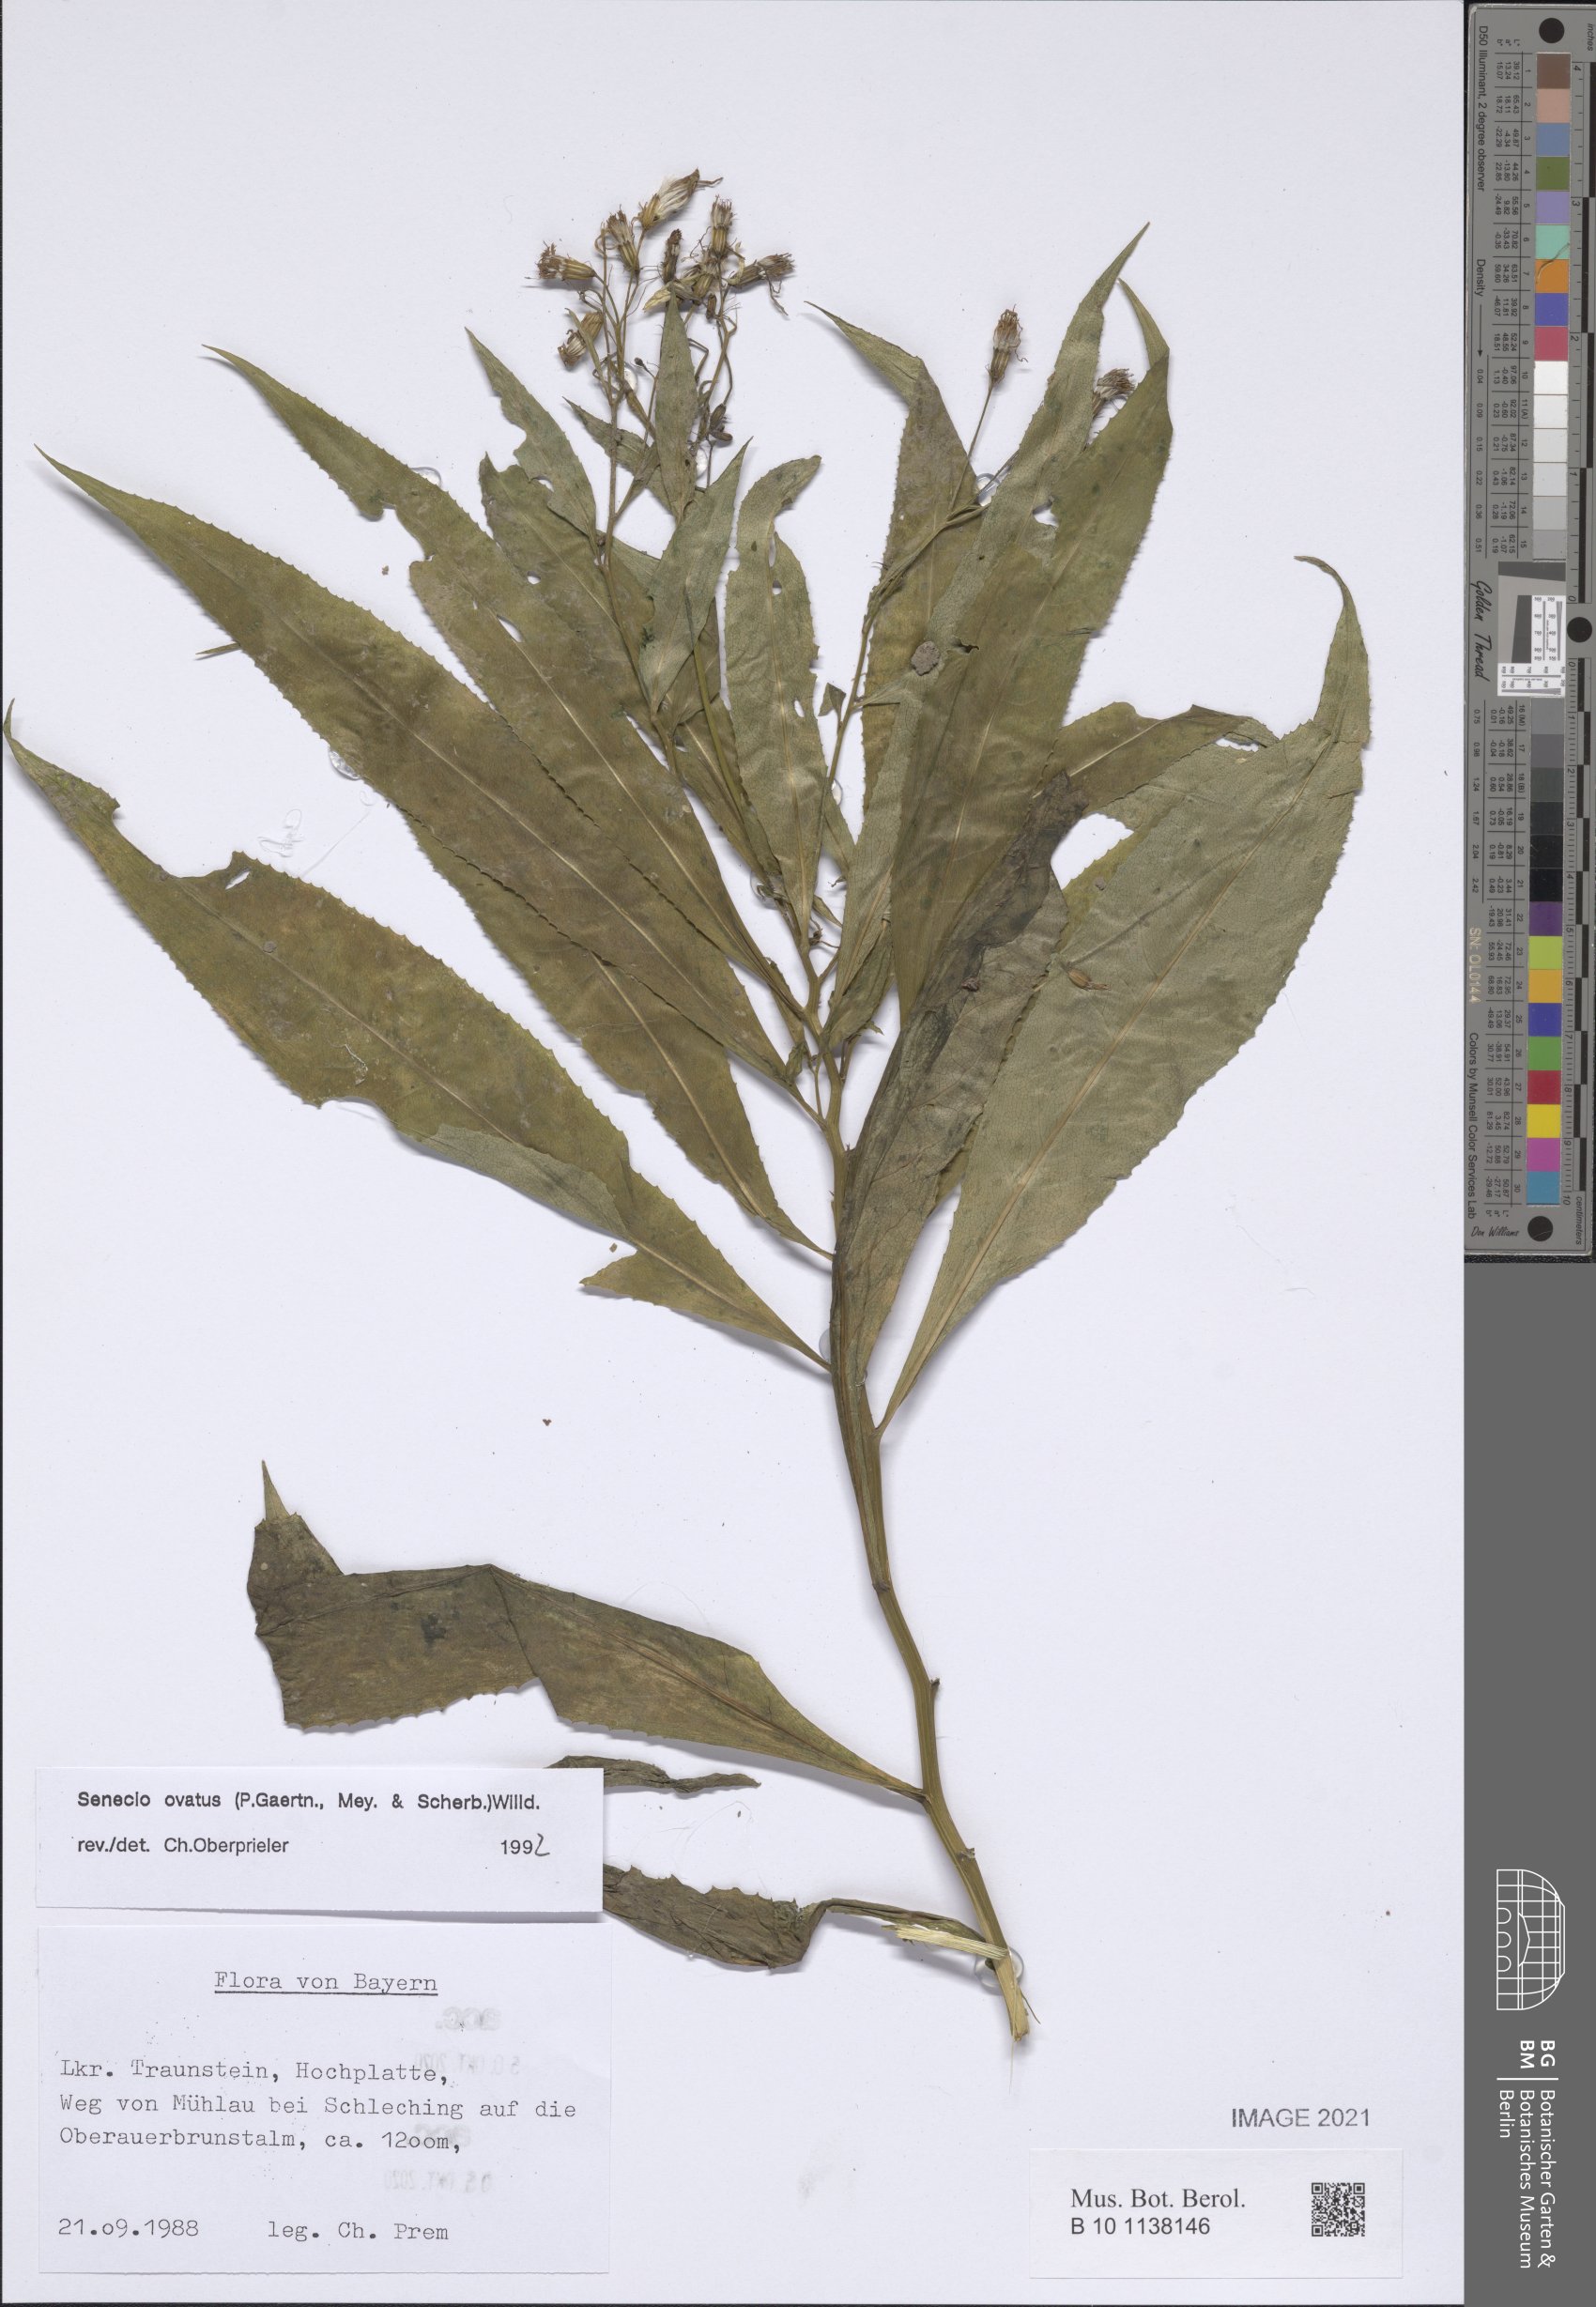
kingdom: Plantae
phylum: Tracheophyta
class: Magnoliopsida
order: Asterales
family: Asteraceae
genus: Senecio
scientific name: Senecio ovatus
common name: Wood ragwort
